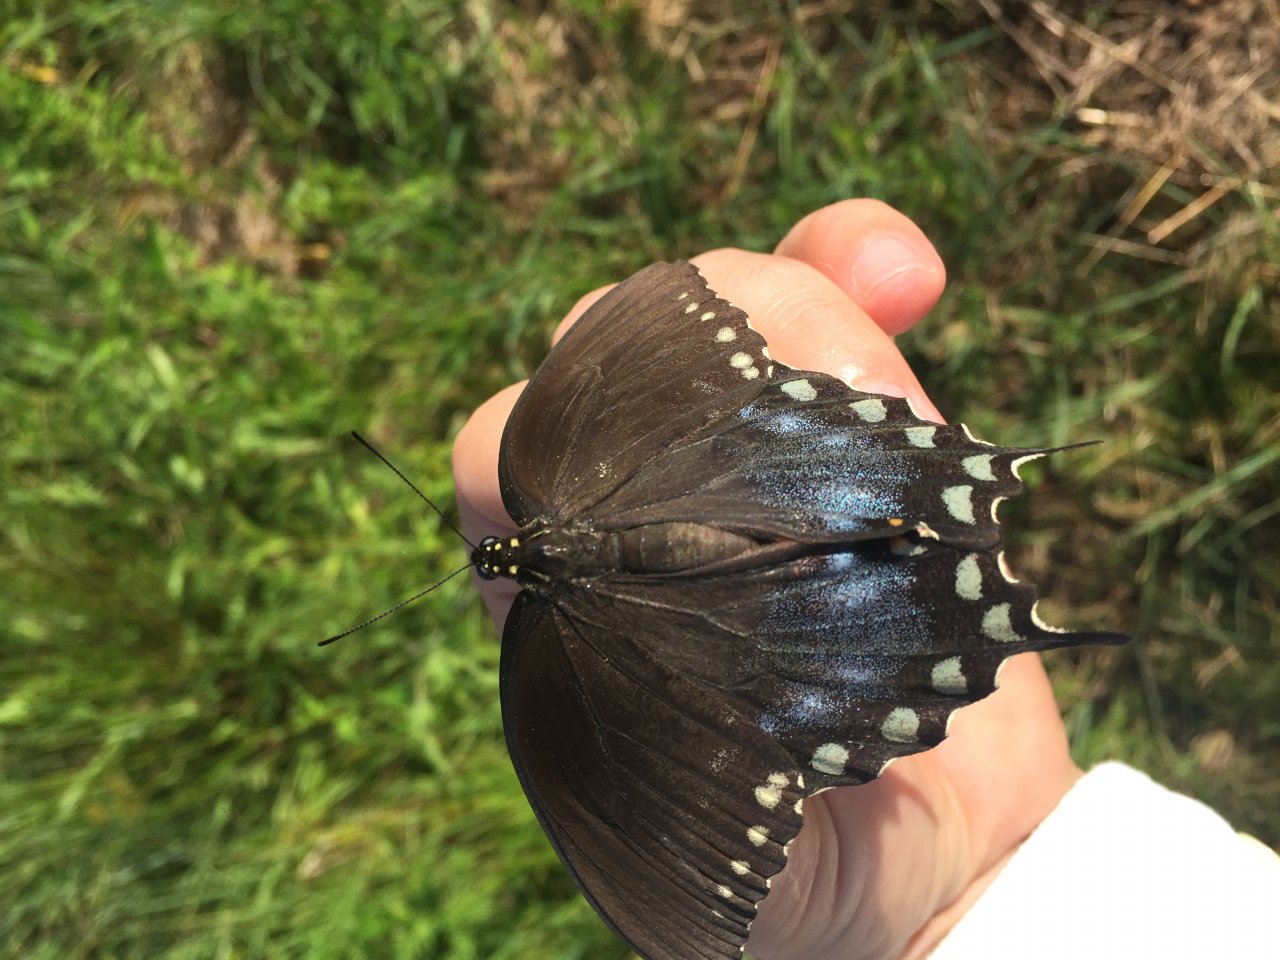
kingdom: Animalia
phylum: Arthropoda
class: Insecta
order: Lepidoptera
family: Papilionidae
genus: Pterourus
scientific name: Pterourus troilus
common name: Spicebush Swallowtail
